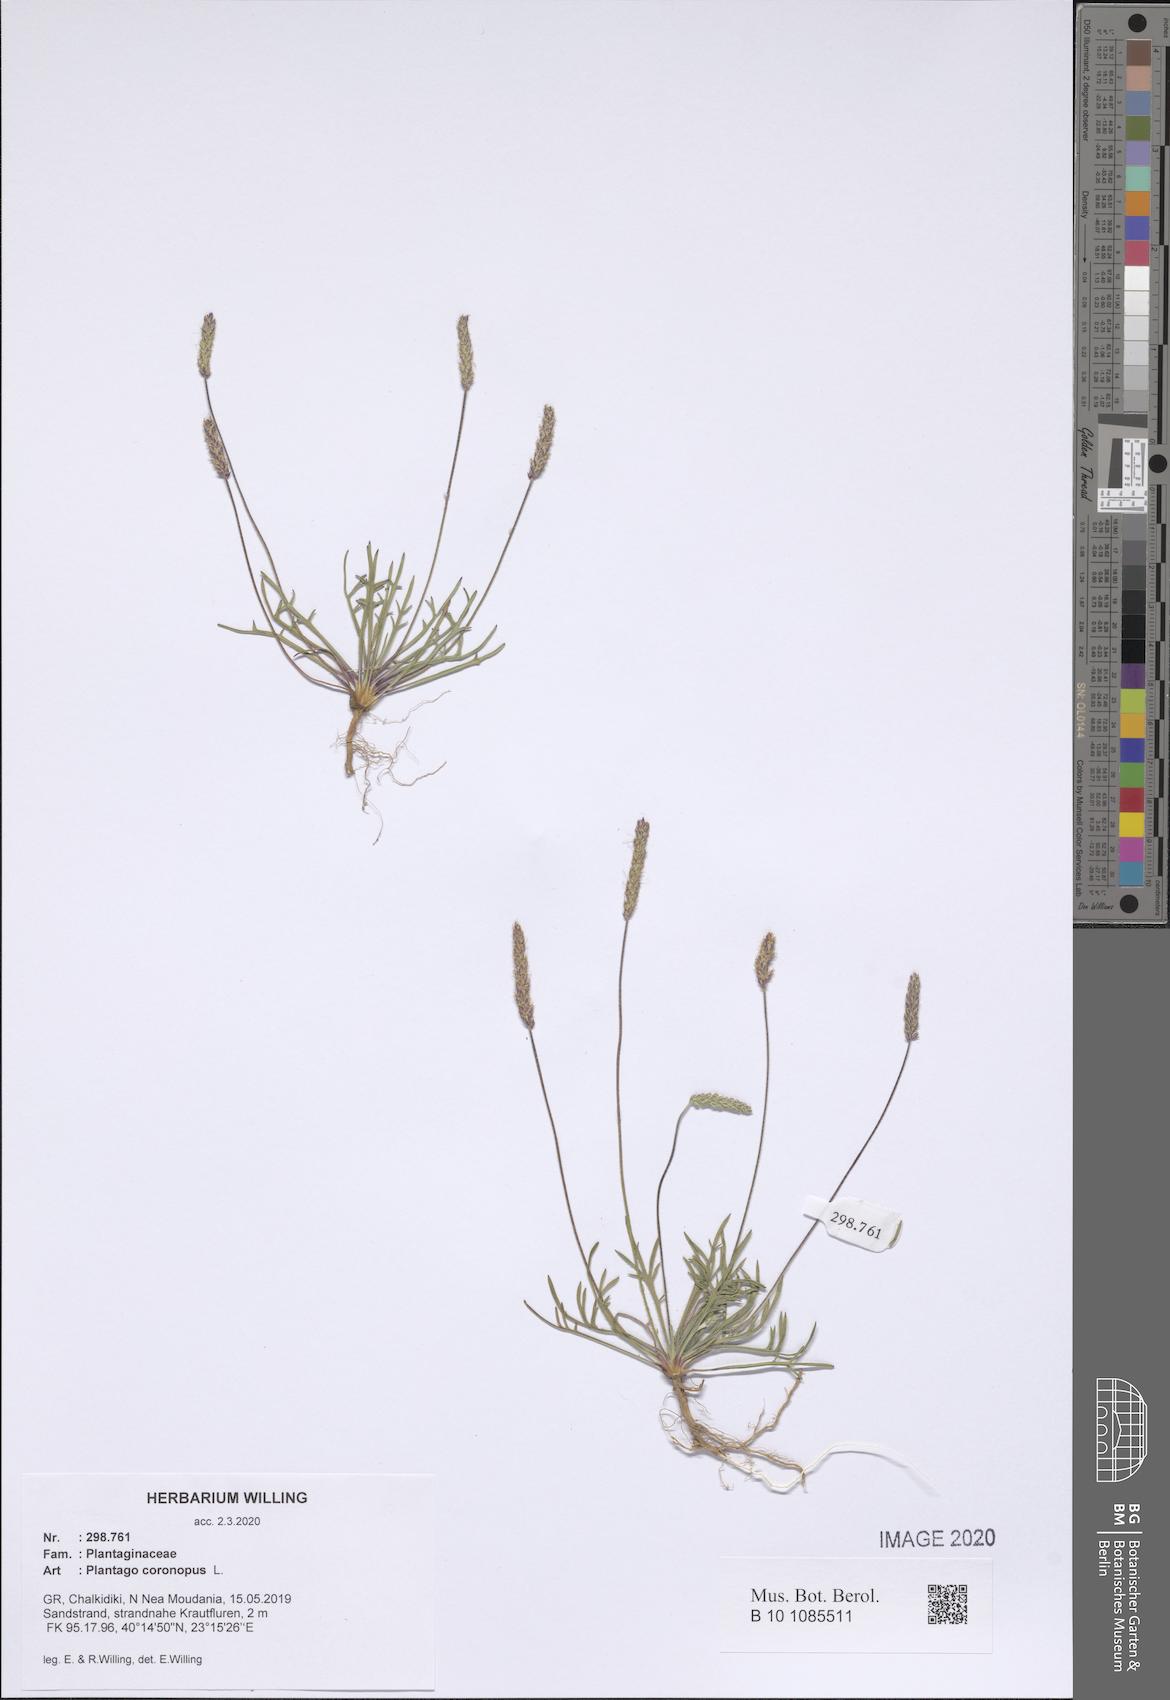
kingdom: Plantae
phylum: Tracheophyta
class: Magnoliopsida
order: Lamiales
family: Plantaginaceae
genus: Plantago
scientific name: Plantago coronopus
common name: Buck's-horn plantain
